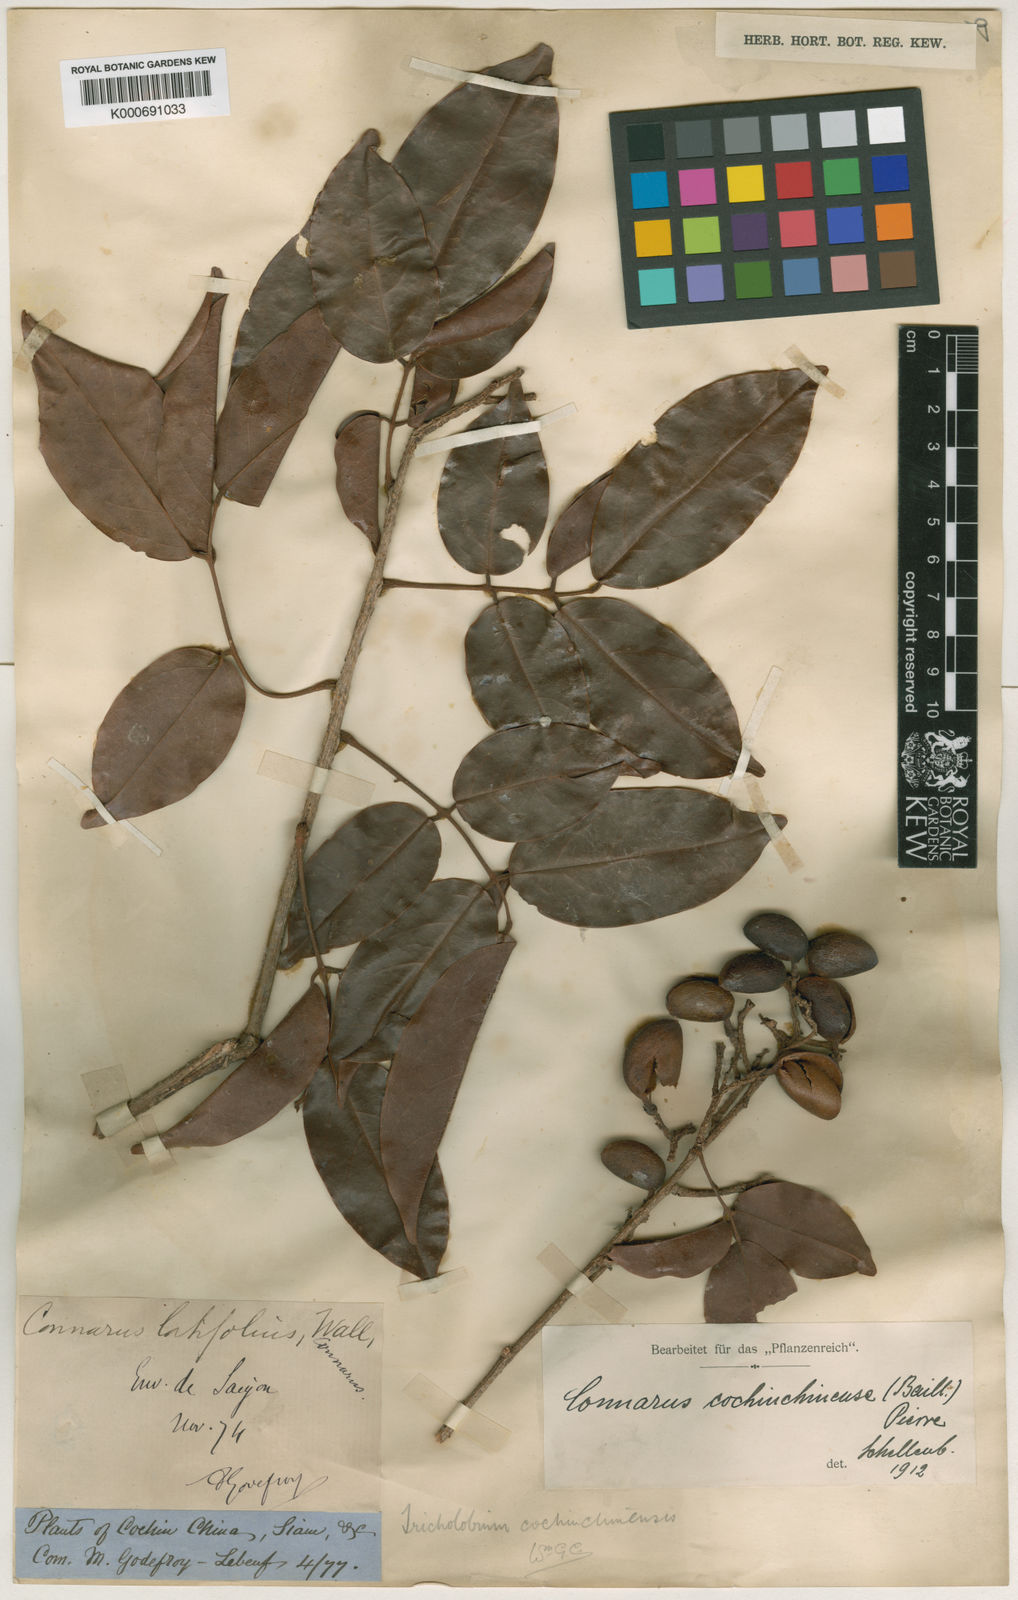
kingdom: Plantae
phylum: Tracheophyta
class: Magnoliopsida
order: Oxalidales
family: Connaraceae
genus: Connarus
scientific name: Connarus cochinchinensis
